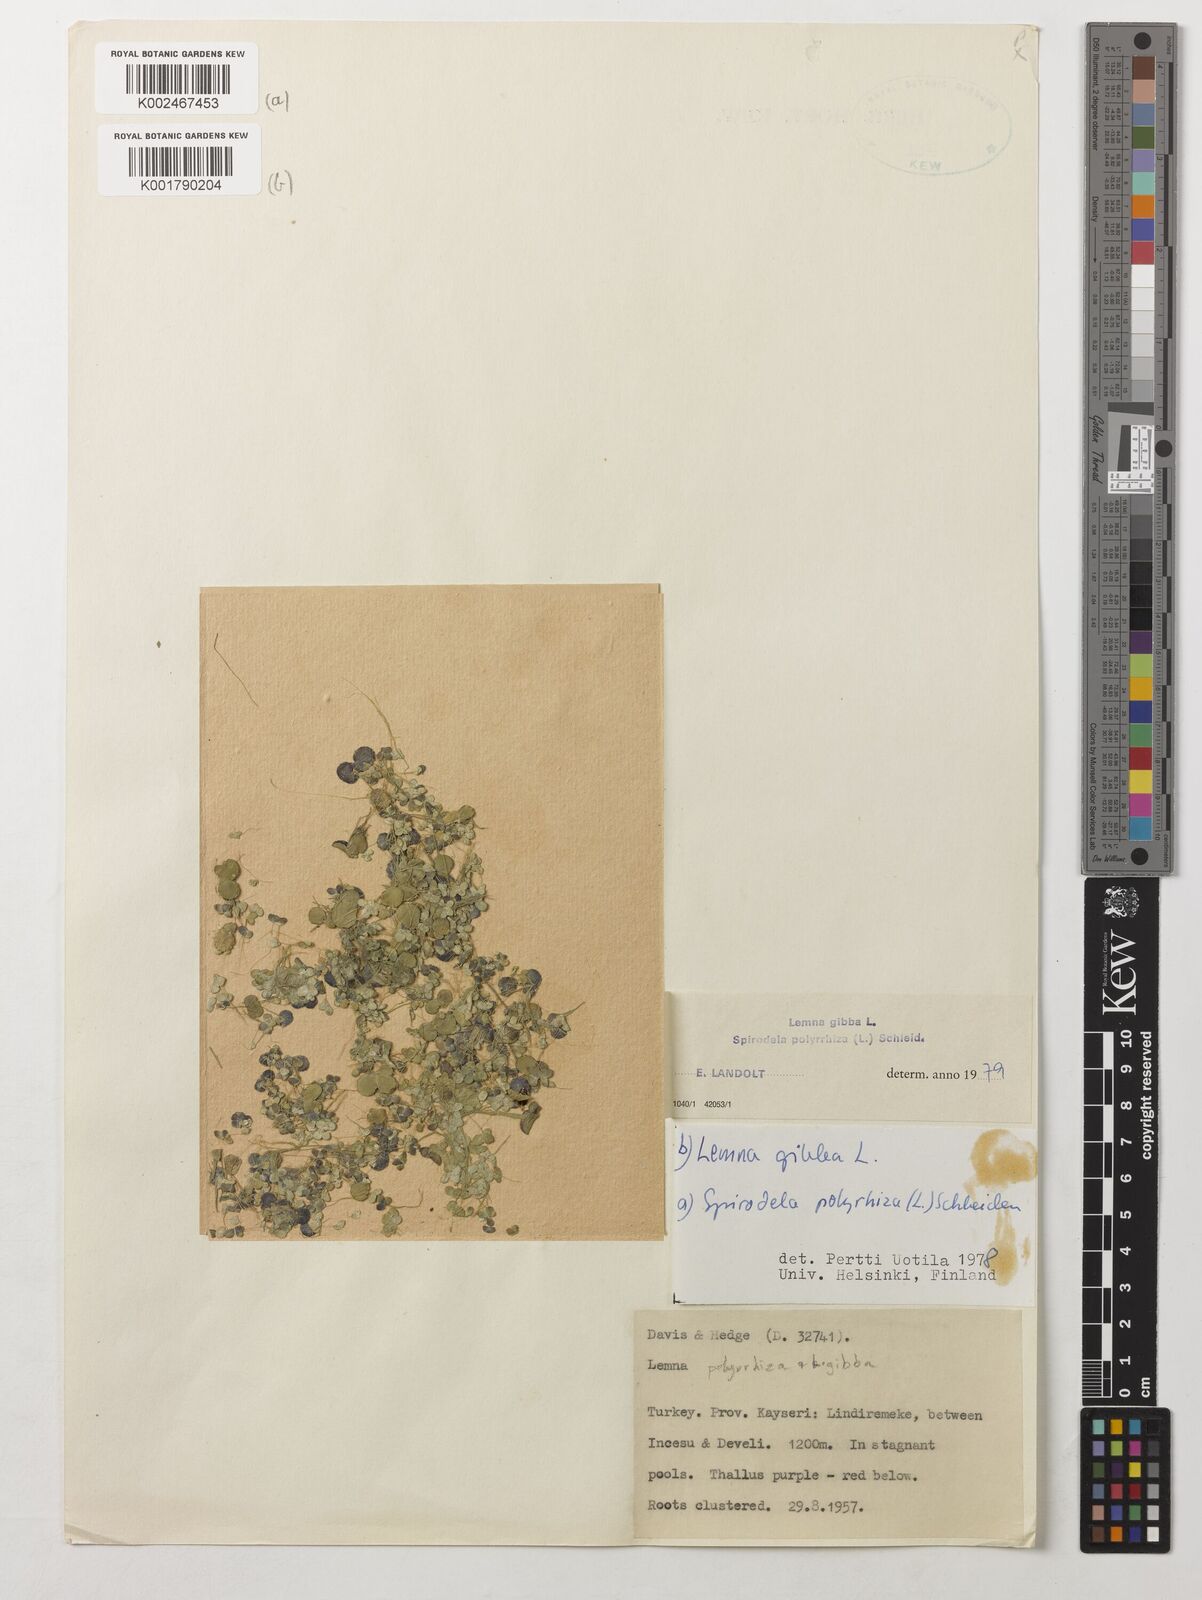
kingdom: Plantae
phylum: Tracheophyta
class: Liliopsida
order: Alismatales
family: Araceae
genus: Lemna
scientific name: Lemna gibba
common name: Fat duckweed
